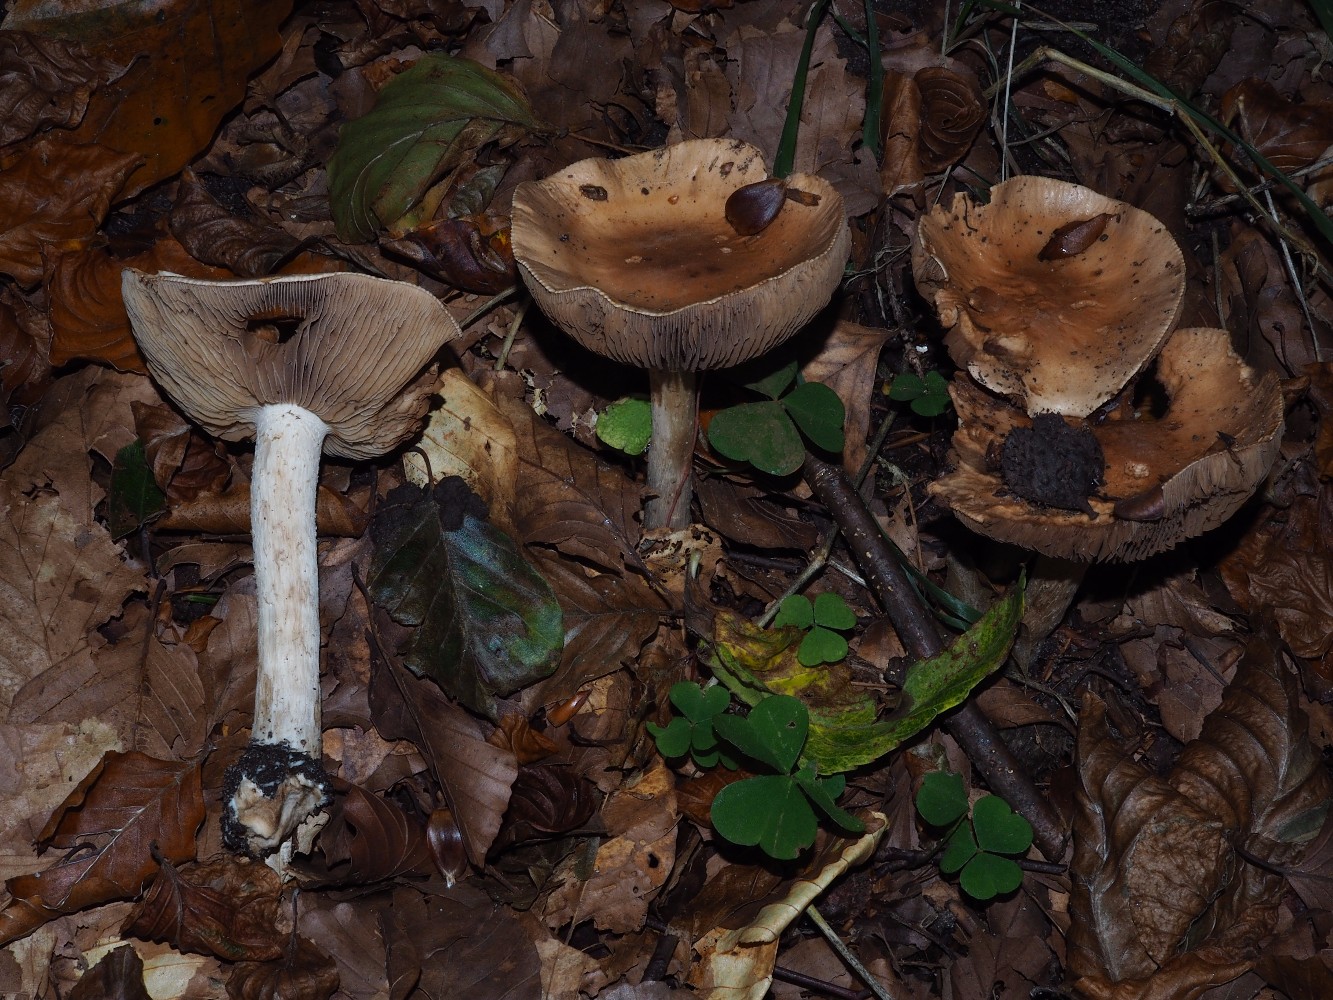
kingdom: Fungi
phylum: Basidiomycota
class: Agaricomycetes
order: Agaricales
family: Hymenogastraceae
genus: Hebeloma
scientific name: Hebeloma
